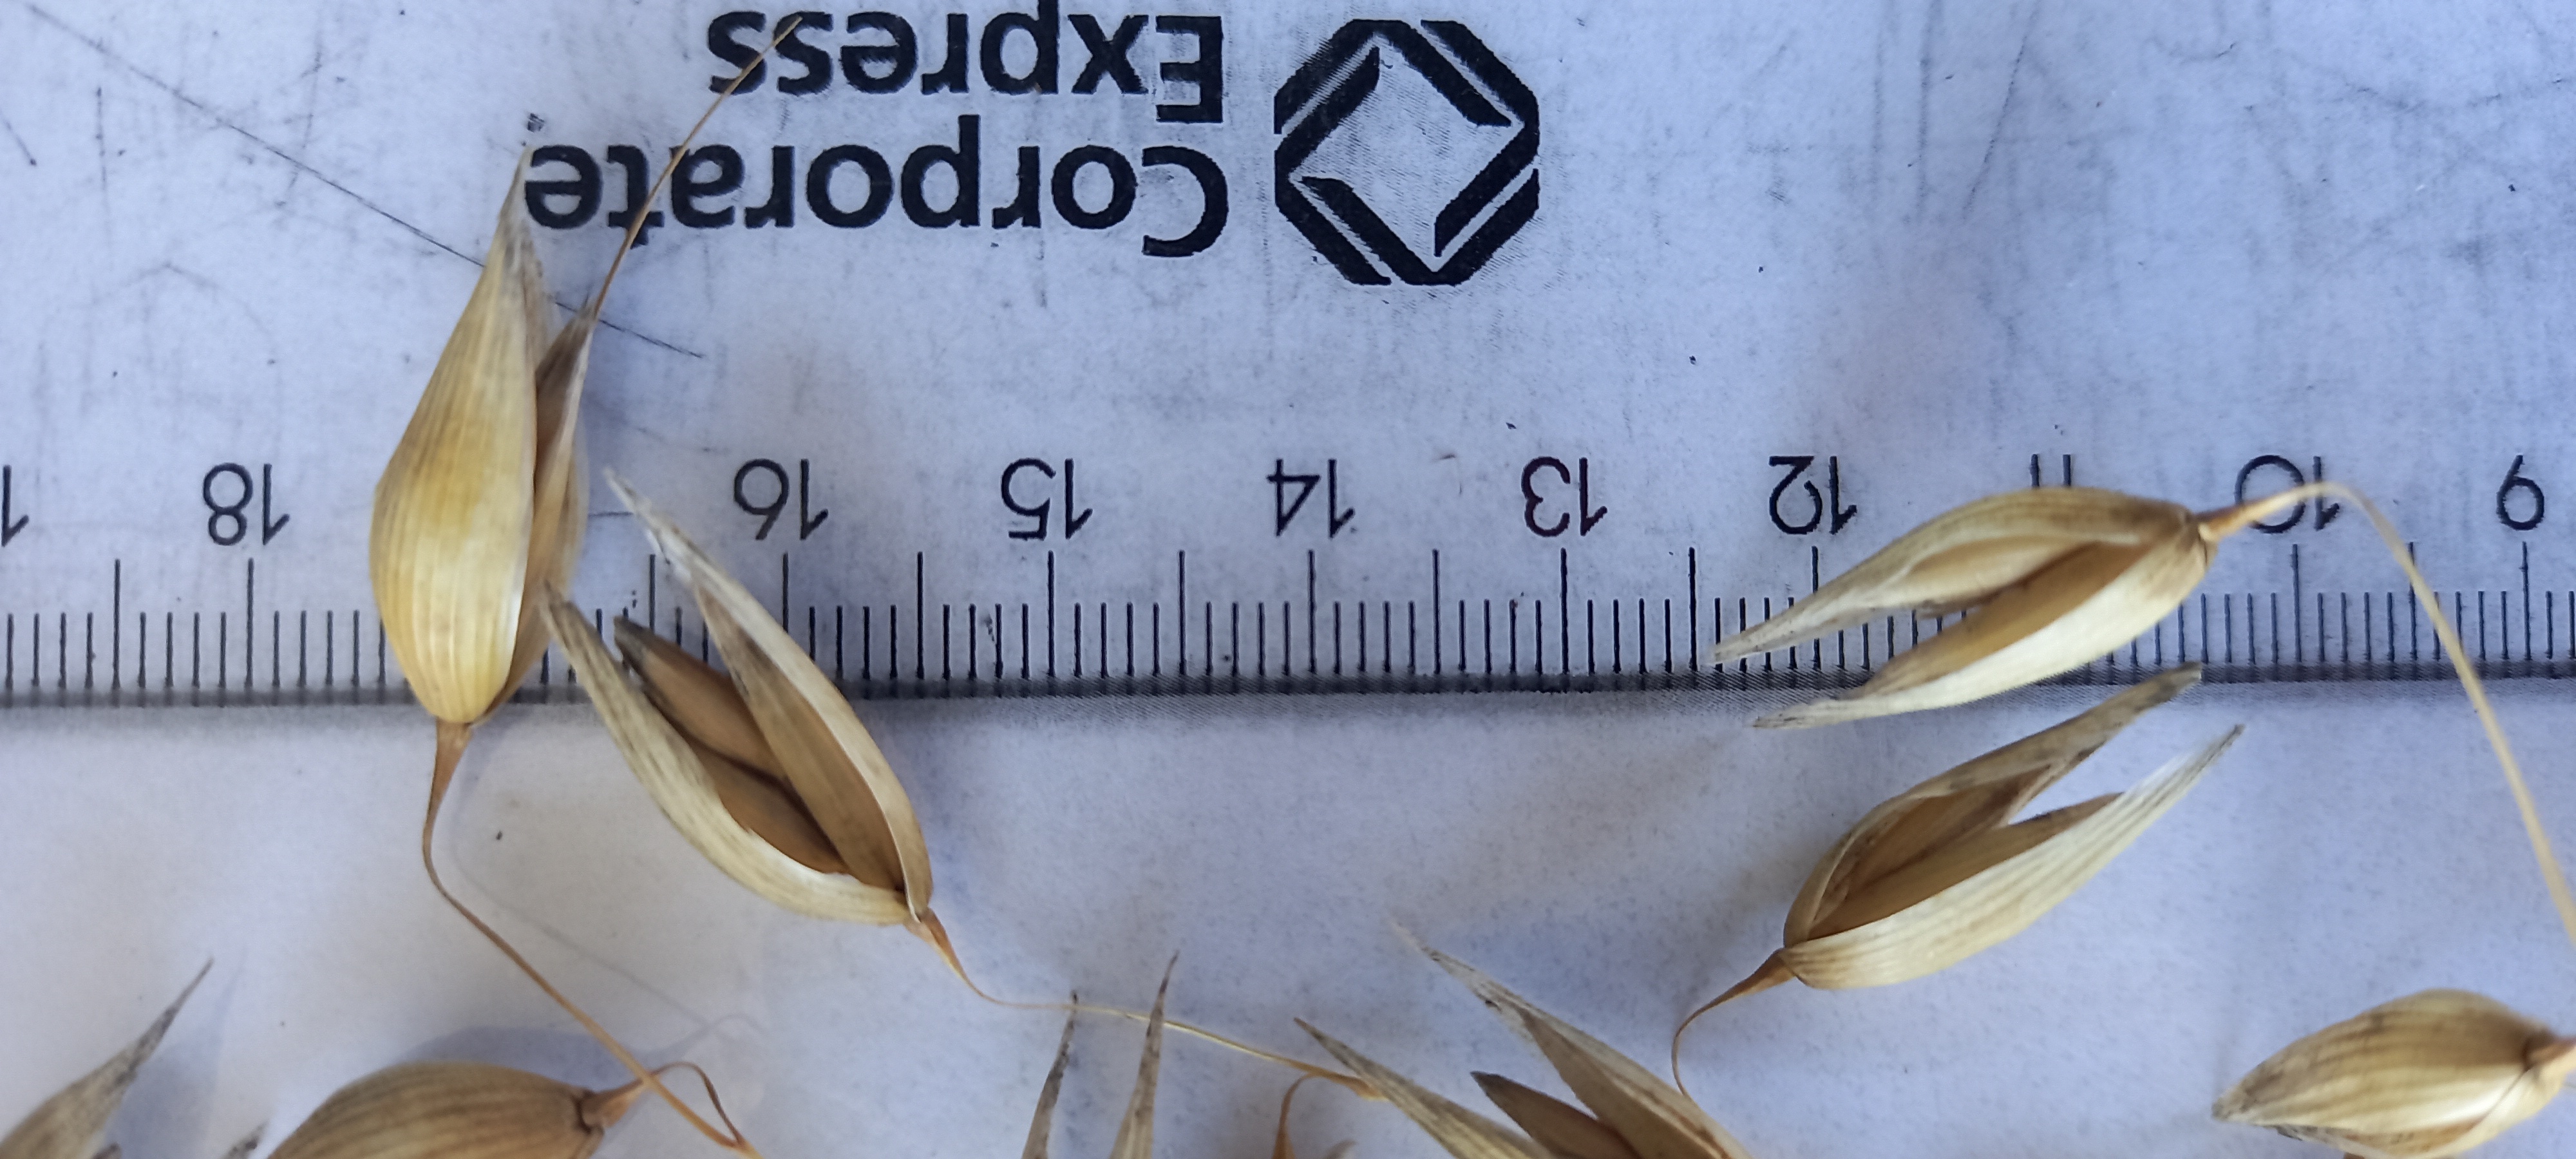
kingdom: Plantae
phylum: Tracheophyta
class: Liliopsida
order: Poales
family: Poaceae
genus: Avena
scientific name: Avena sativa
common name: Oat
